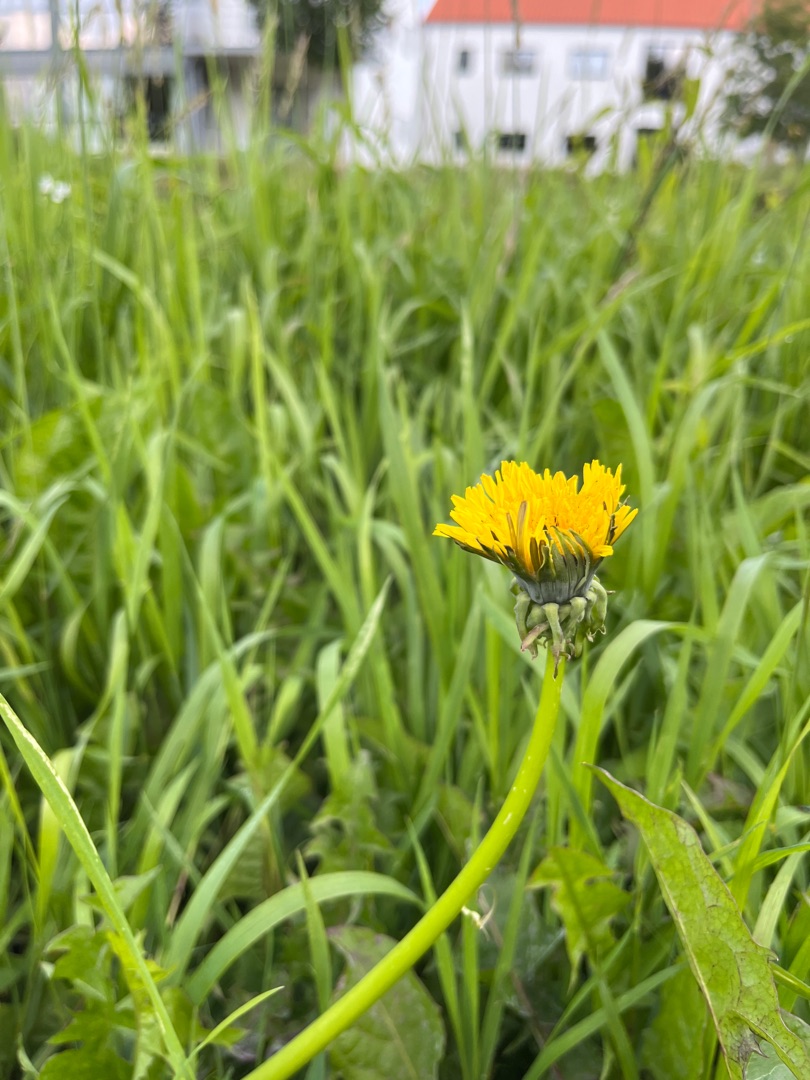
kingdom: Plantae
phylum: Tracheophyta
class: Magnoliopsida
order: Asterales
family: Asteraceae
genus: Taraxacum
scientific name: Taraxacum
